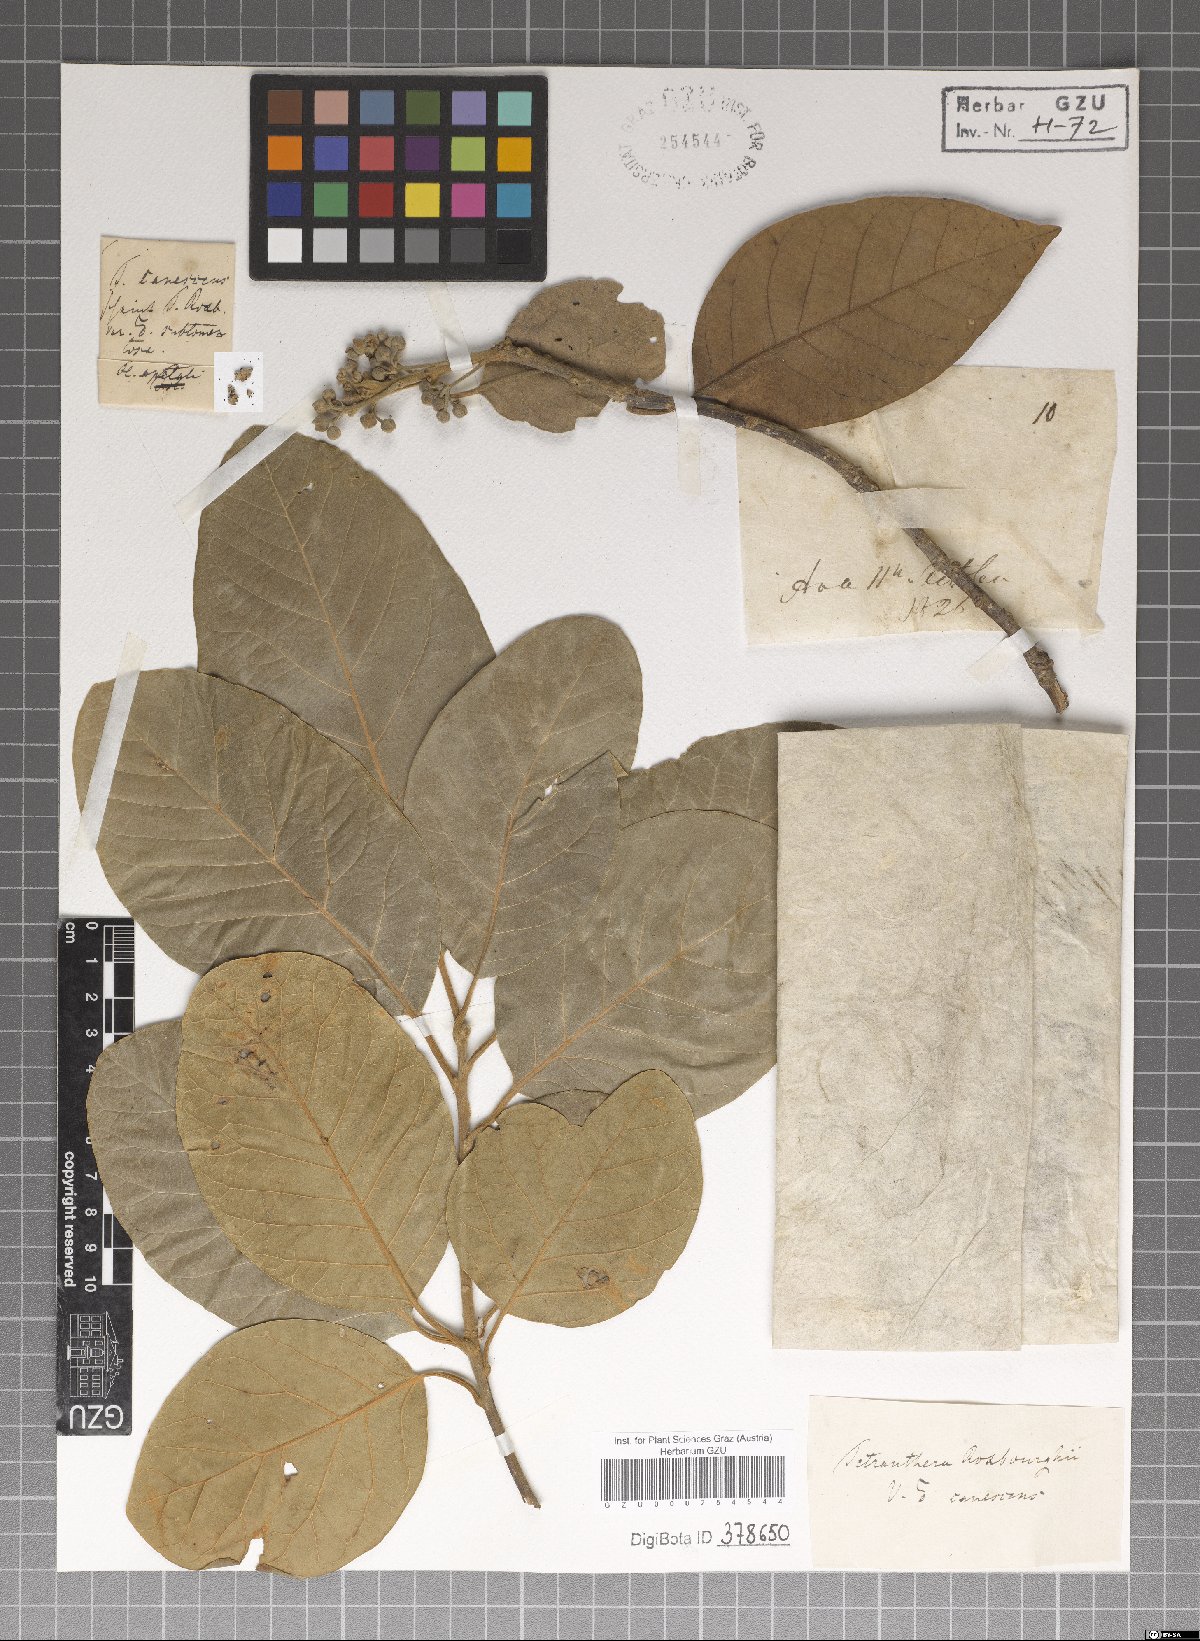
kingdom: Plantae
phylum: Tracheophyta
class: Magnoliopsida
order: Laurales
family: Lauraceae
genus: Litsea
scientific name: Litsea glutinosa
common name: Indian-laurel
